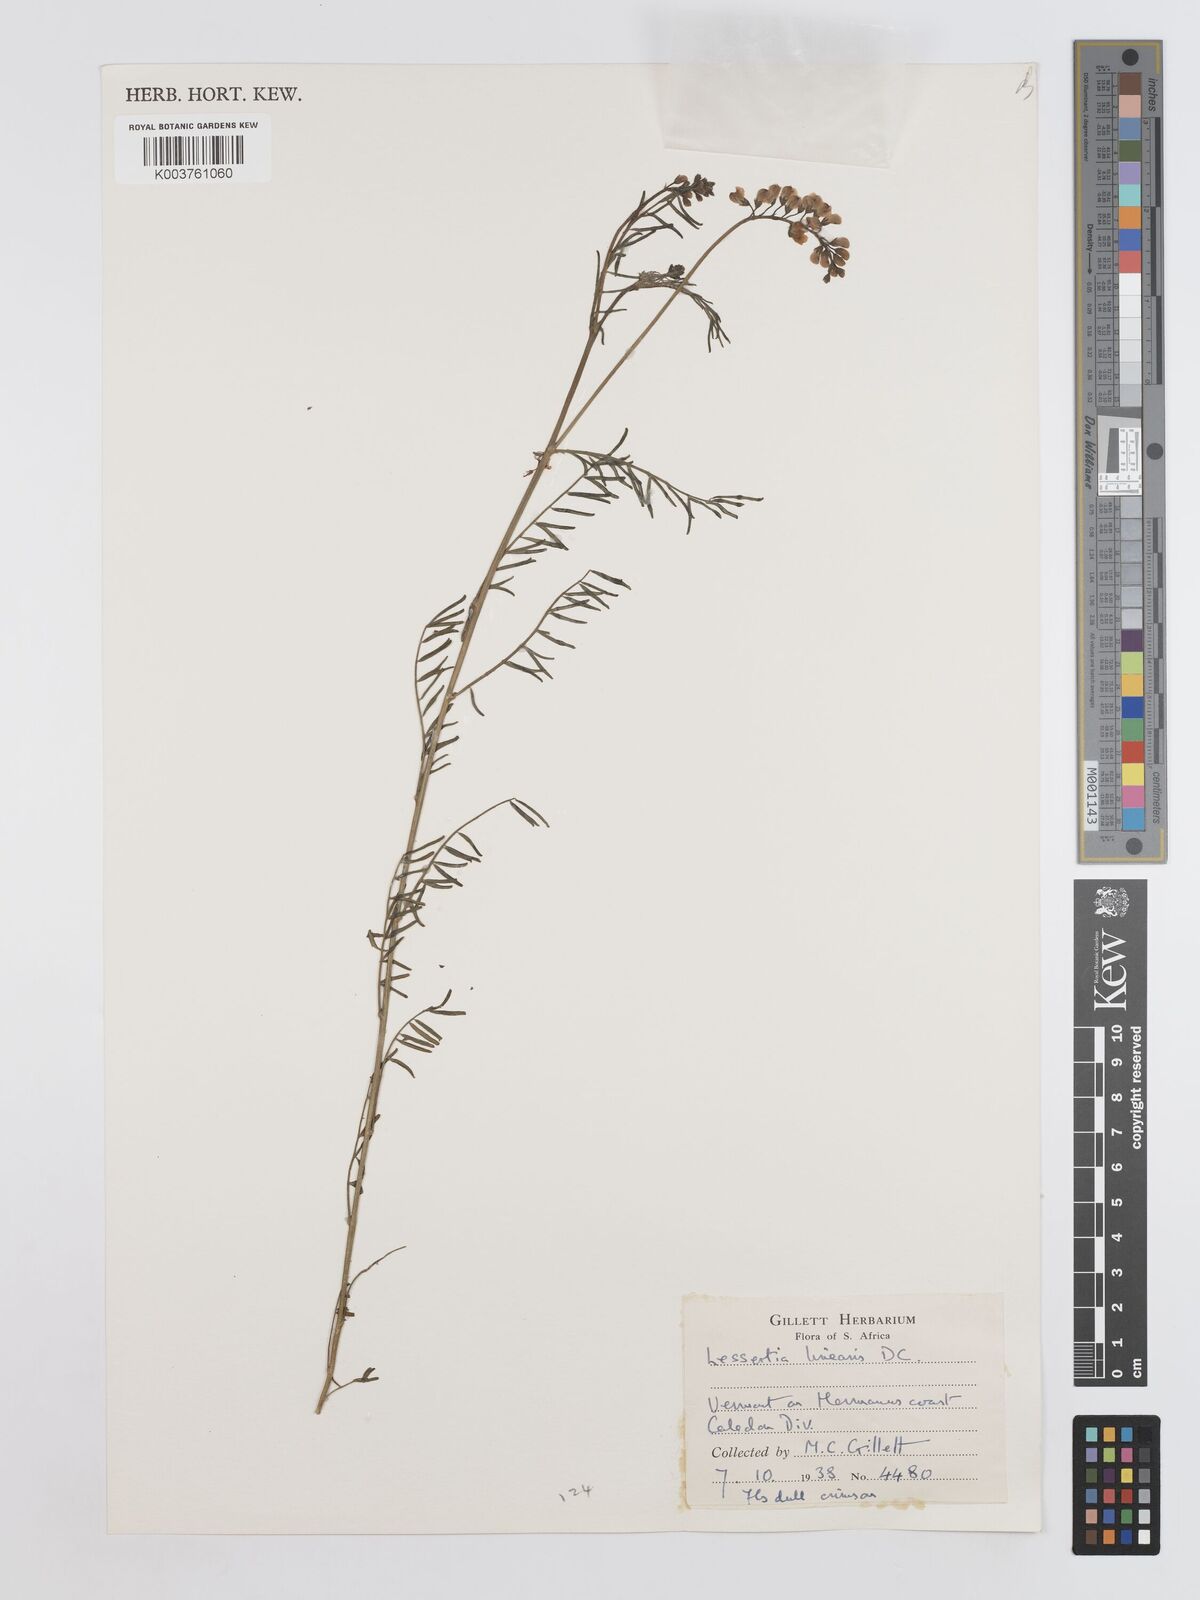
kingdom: Plantae
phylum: Tracheophyta
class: Magnoliopsida
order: Fabales
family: Fabaceae
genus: Lessertia
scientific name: Lessertia herbacea
